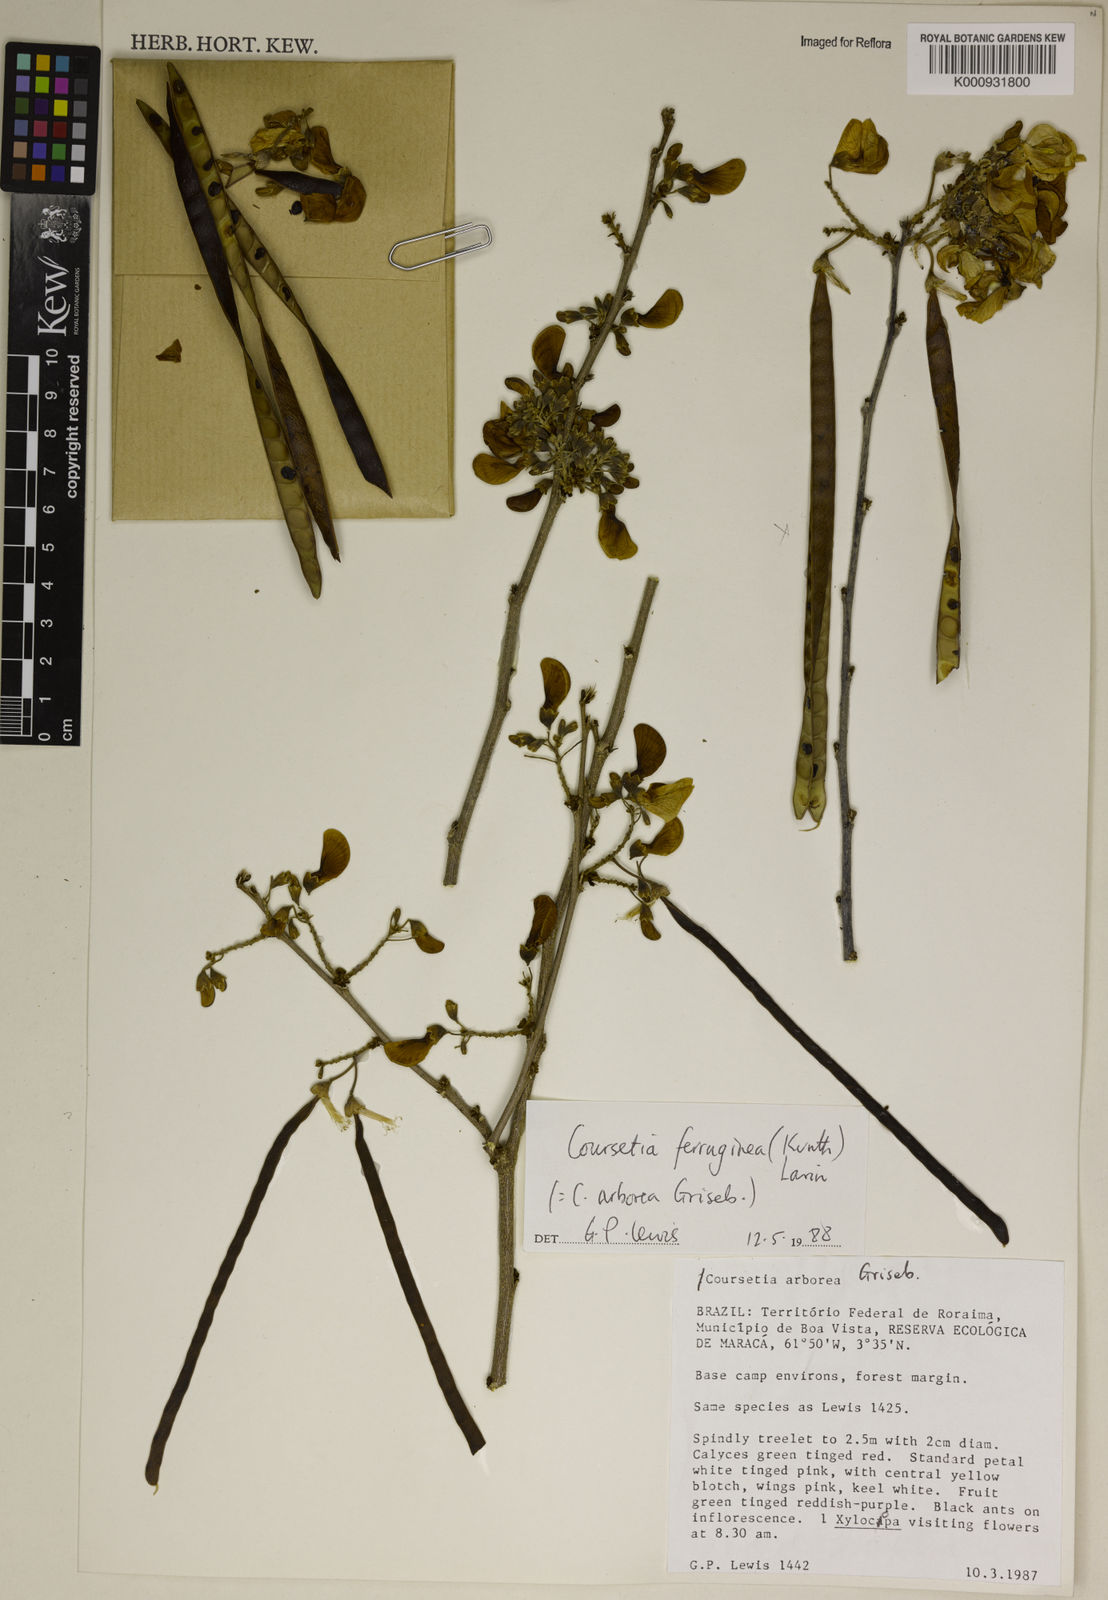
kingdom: Plantae
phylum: Tracheophyta
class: Magnoliopsida
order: Fabales
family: Fabaceae
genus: Coursetia
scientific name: Coursetia ferruginea
